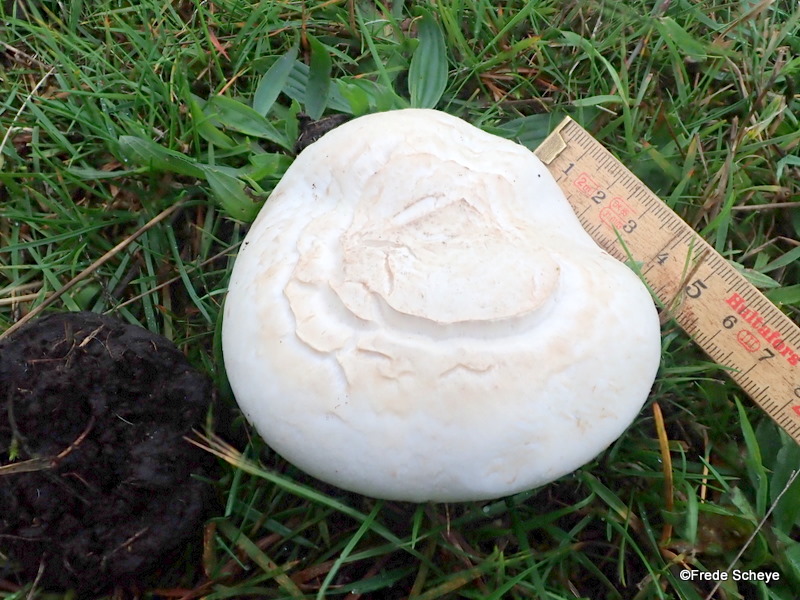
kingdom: Fungi
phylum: Basidiomycota
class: Agaricomycetes
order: Agaricales
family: Agaricaceae
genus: Agaricus
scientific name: Agaricus campestris
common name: mark-champignon
